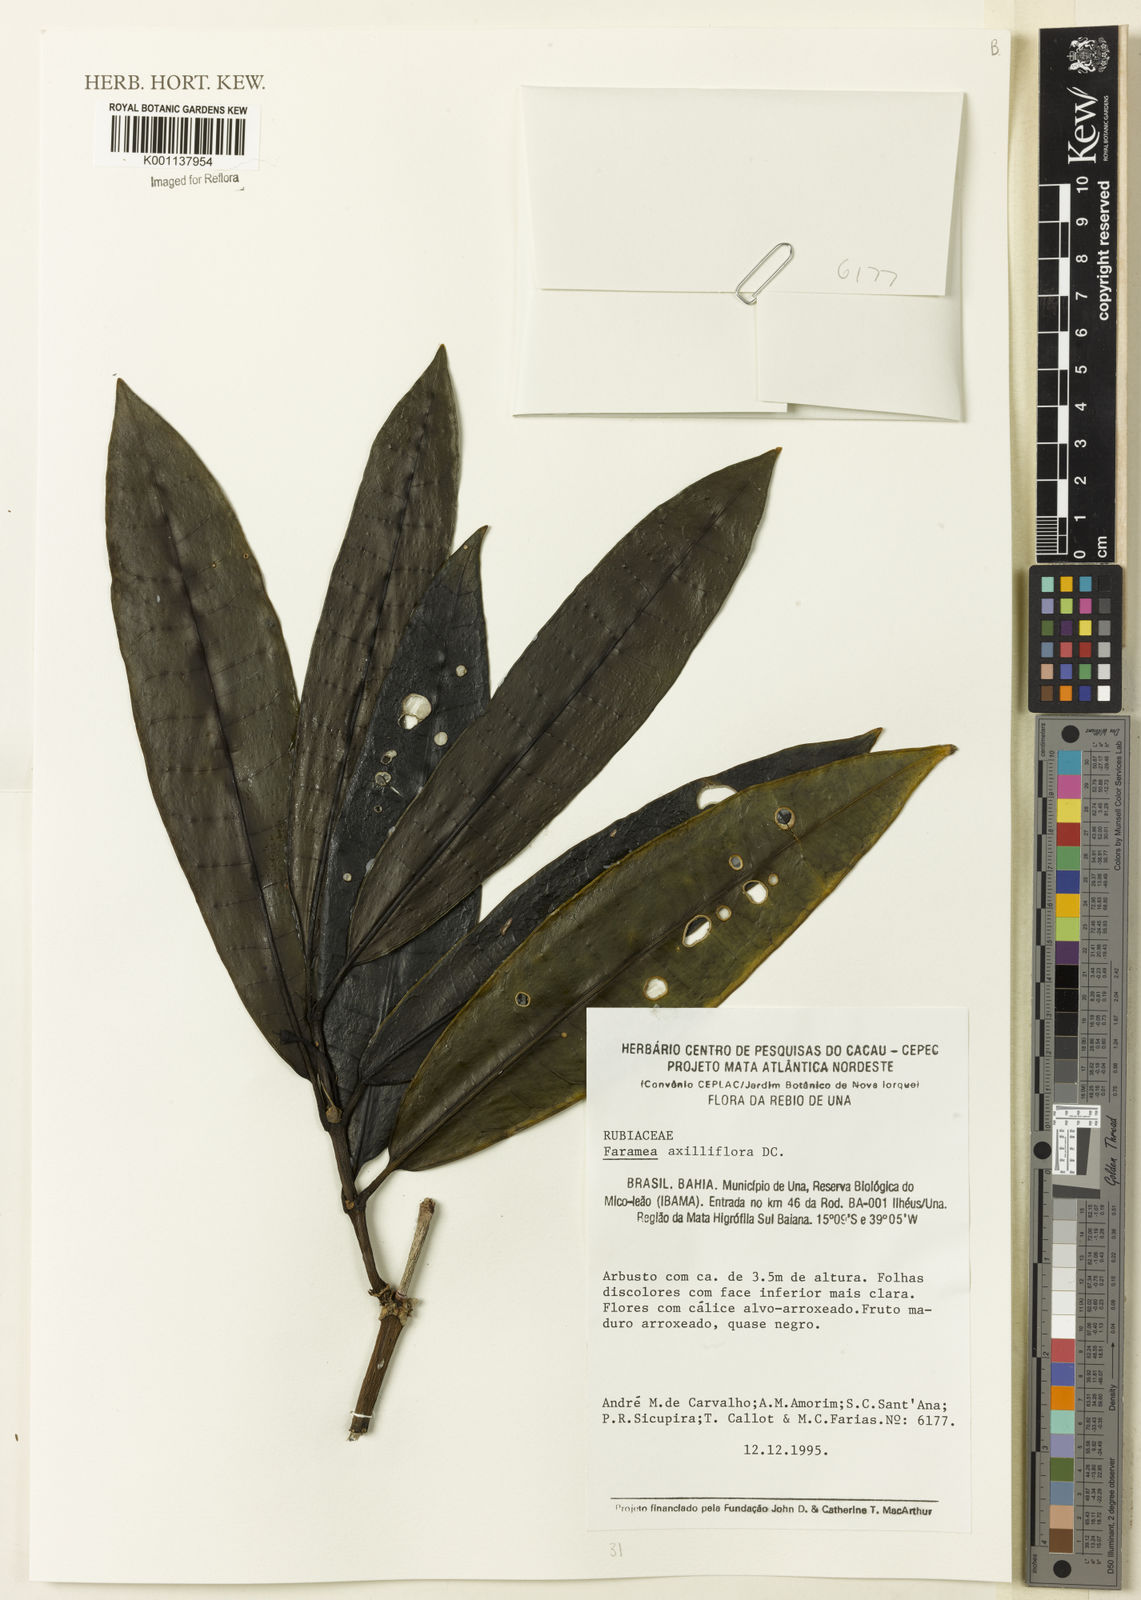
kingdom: Plantae
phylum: Tracheophyta
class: Magnoliopsida
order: Gentianales
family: Rubiaceae
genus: Faramea
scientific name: Faramea axilliflora
